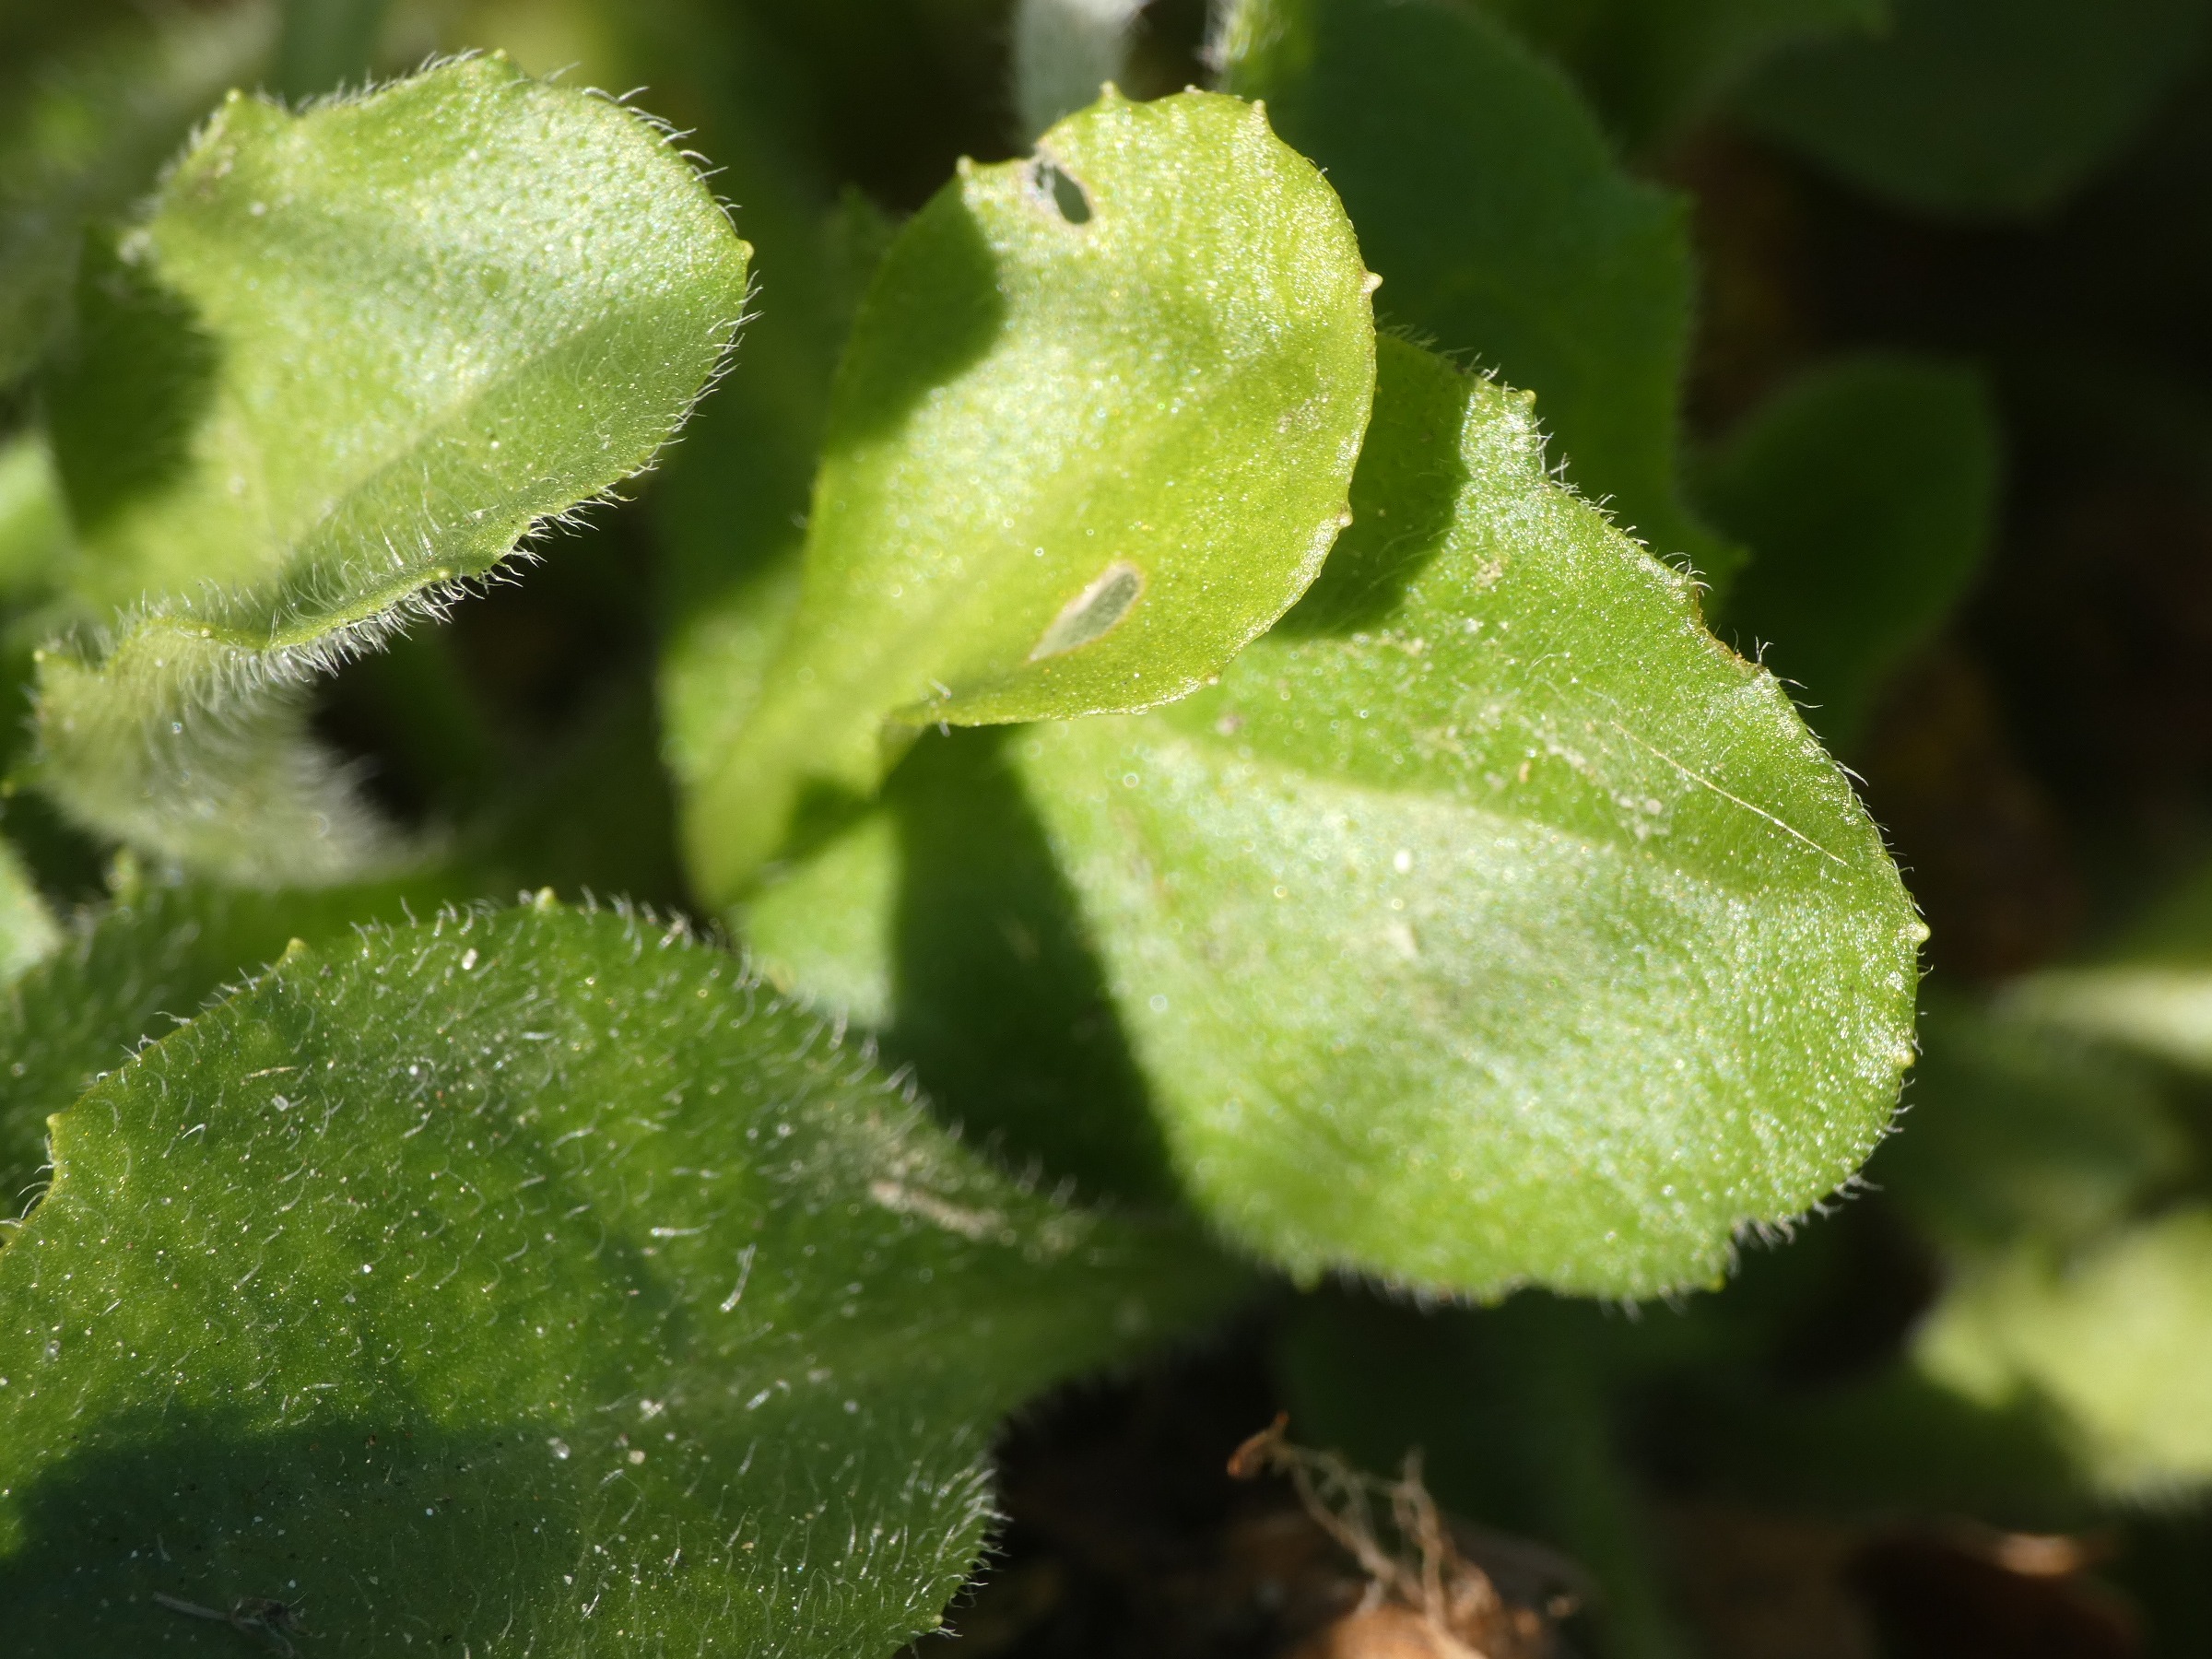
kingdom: Plantae
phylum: Tracheophyta
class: Magnoliopsida
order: Asterales
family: Asteraceae
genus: Bellis
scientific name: Bellis perennis
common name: Tusindfryd
